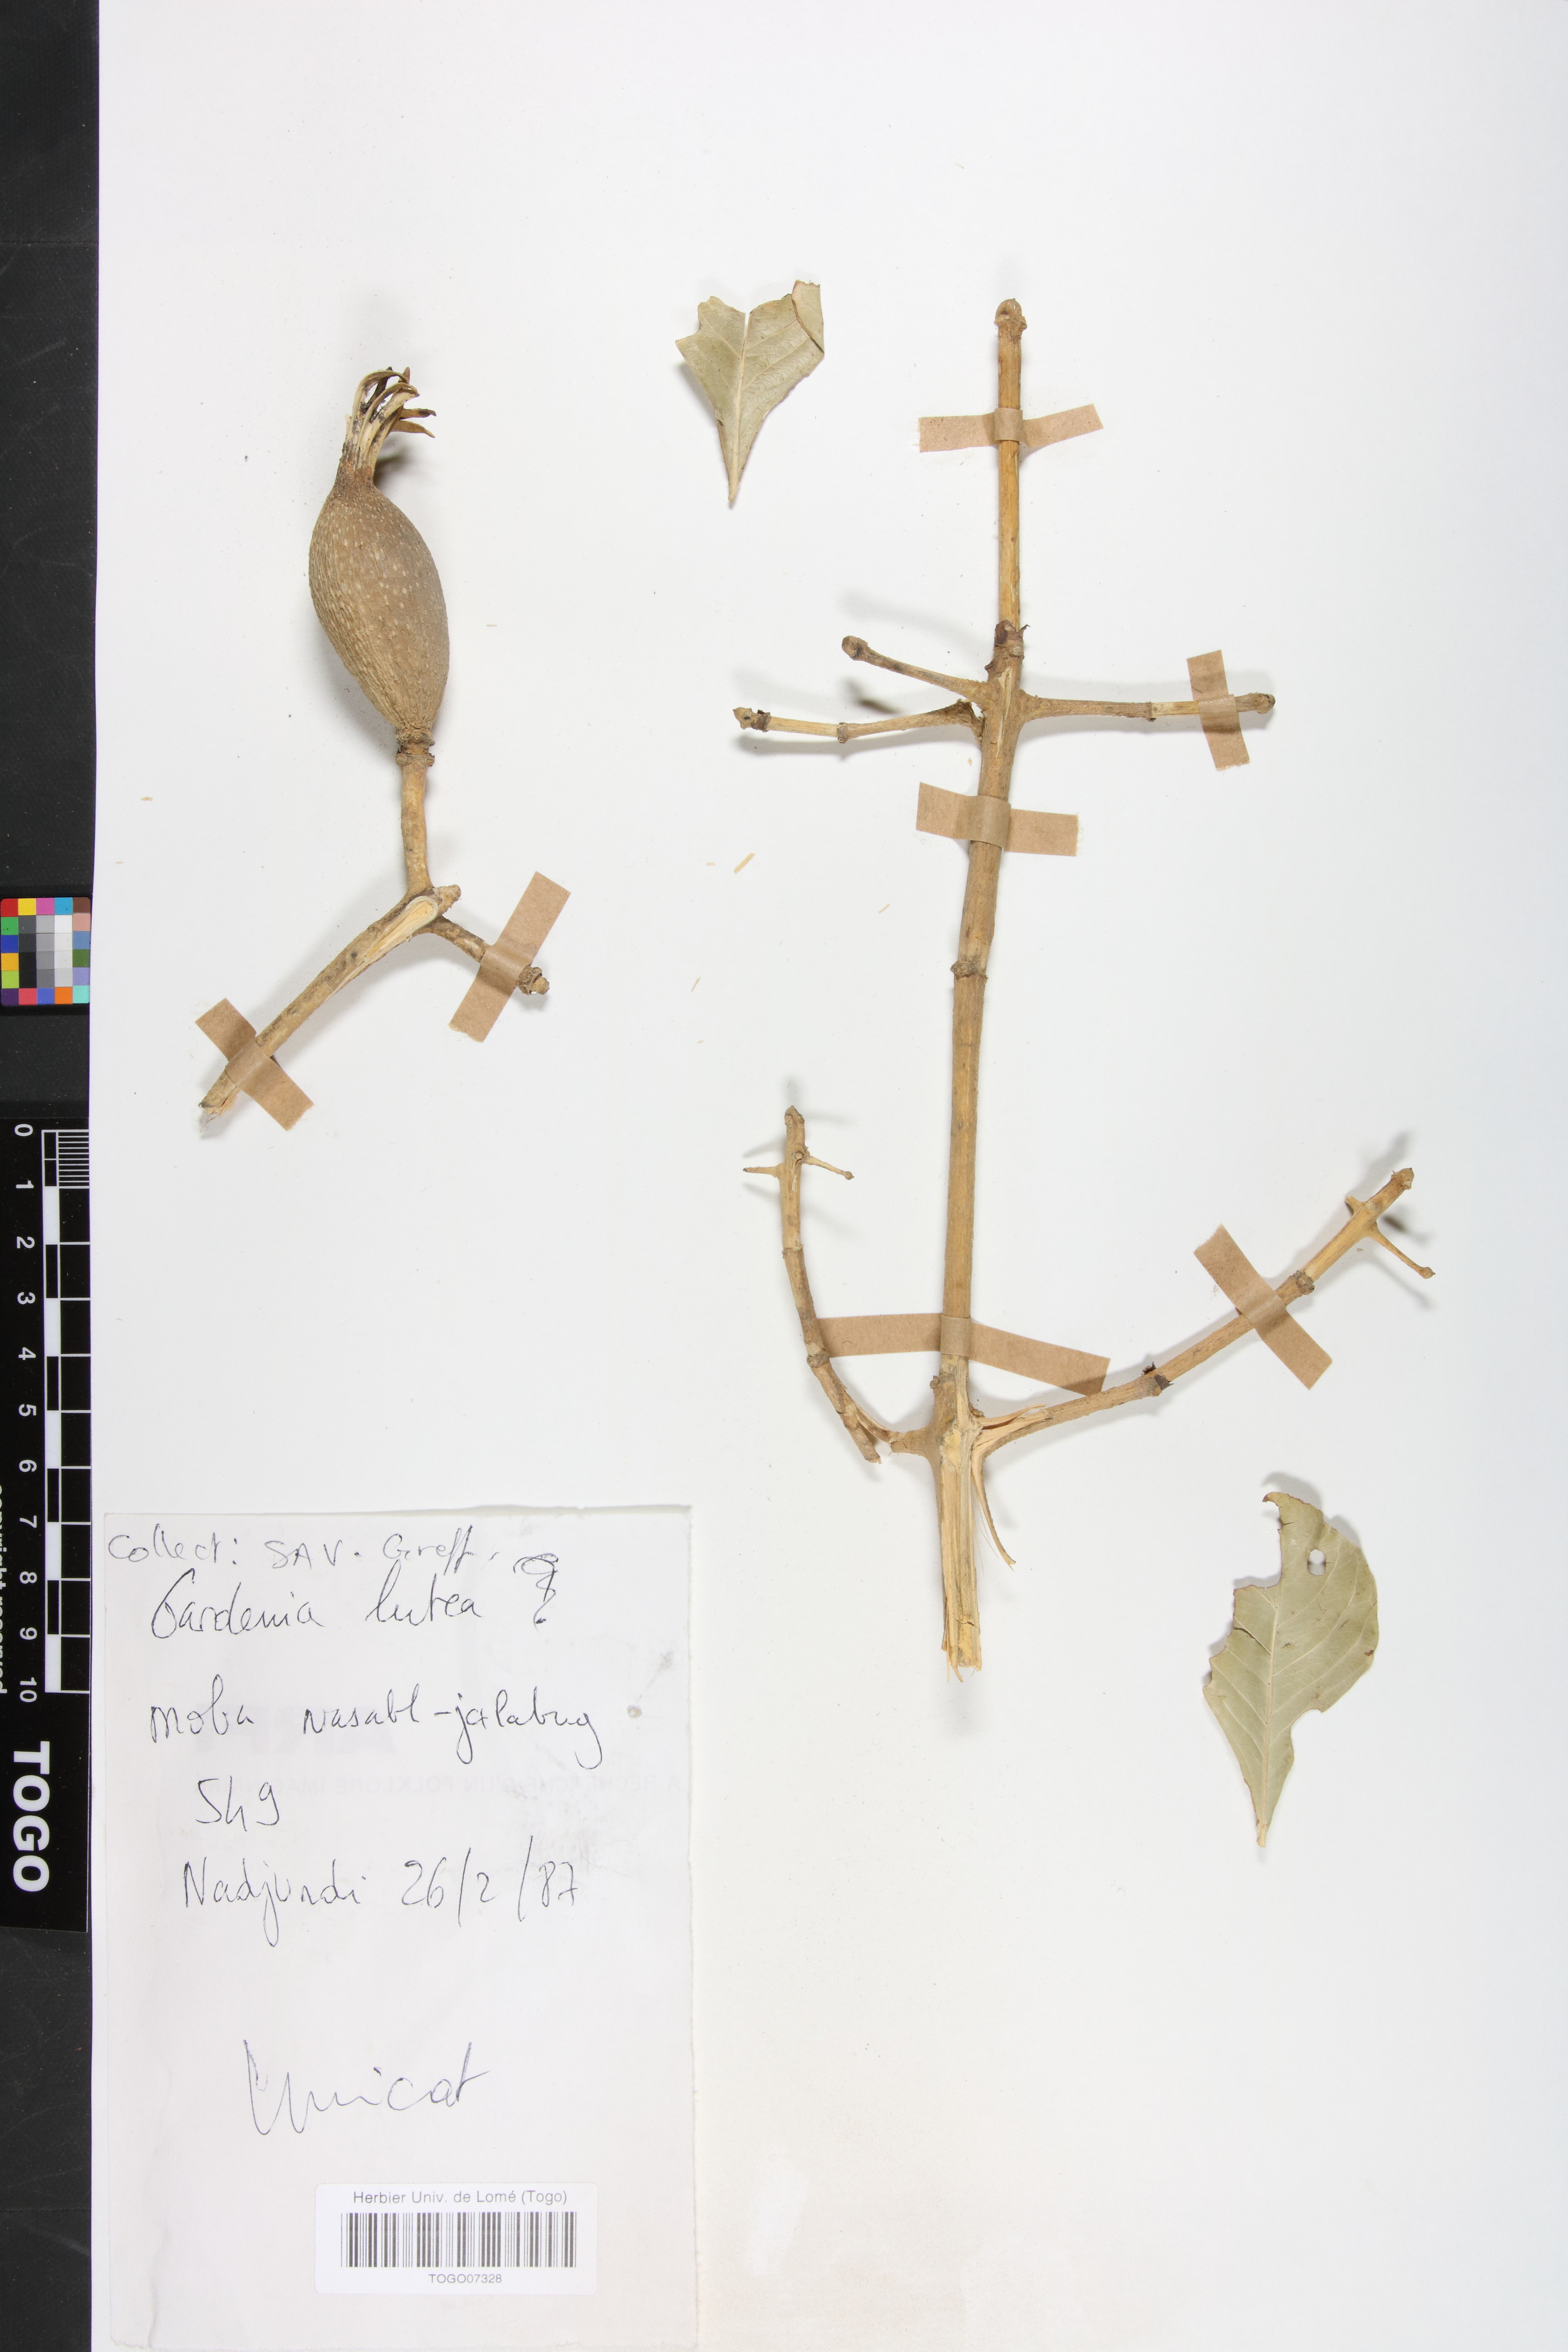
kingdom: Plantae
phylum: Tracheophyta
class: Magnoliopsida
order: Gentianales
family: Rubiaceae
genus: Gardenia
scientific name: Gardenia ternifolia
